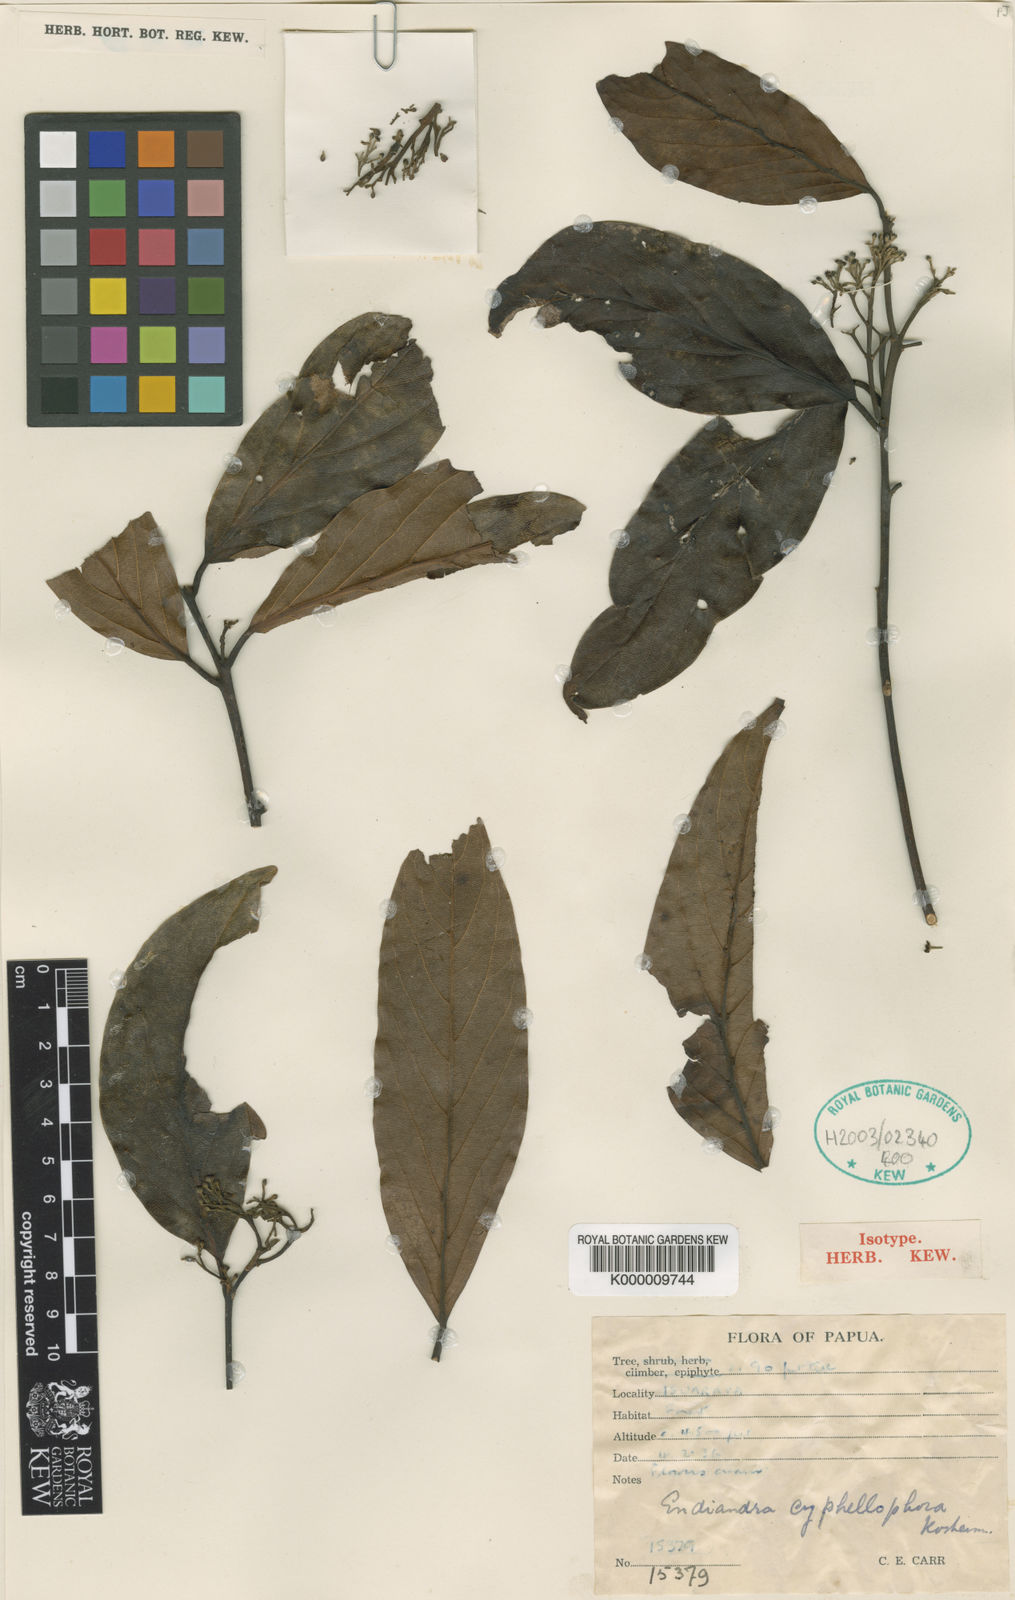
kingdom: Plantae
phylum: Tracheophyta
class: Magnoliopsida
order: Laurales
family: Lauraceae
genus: Endiandra
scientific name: Endiandra cyphellophora
